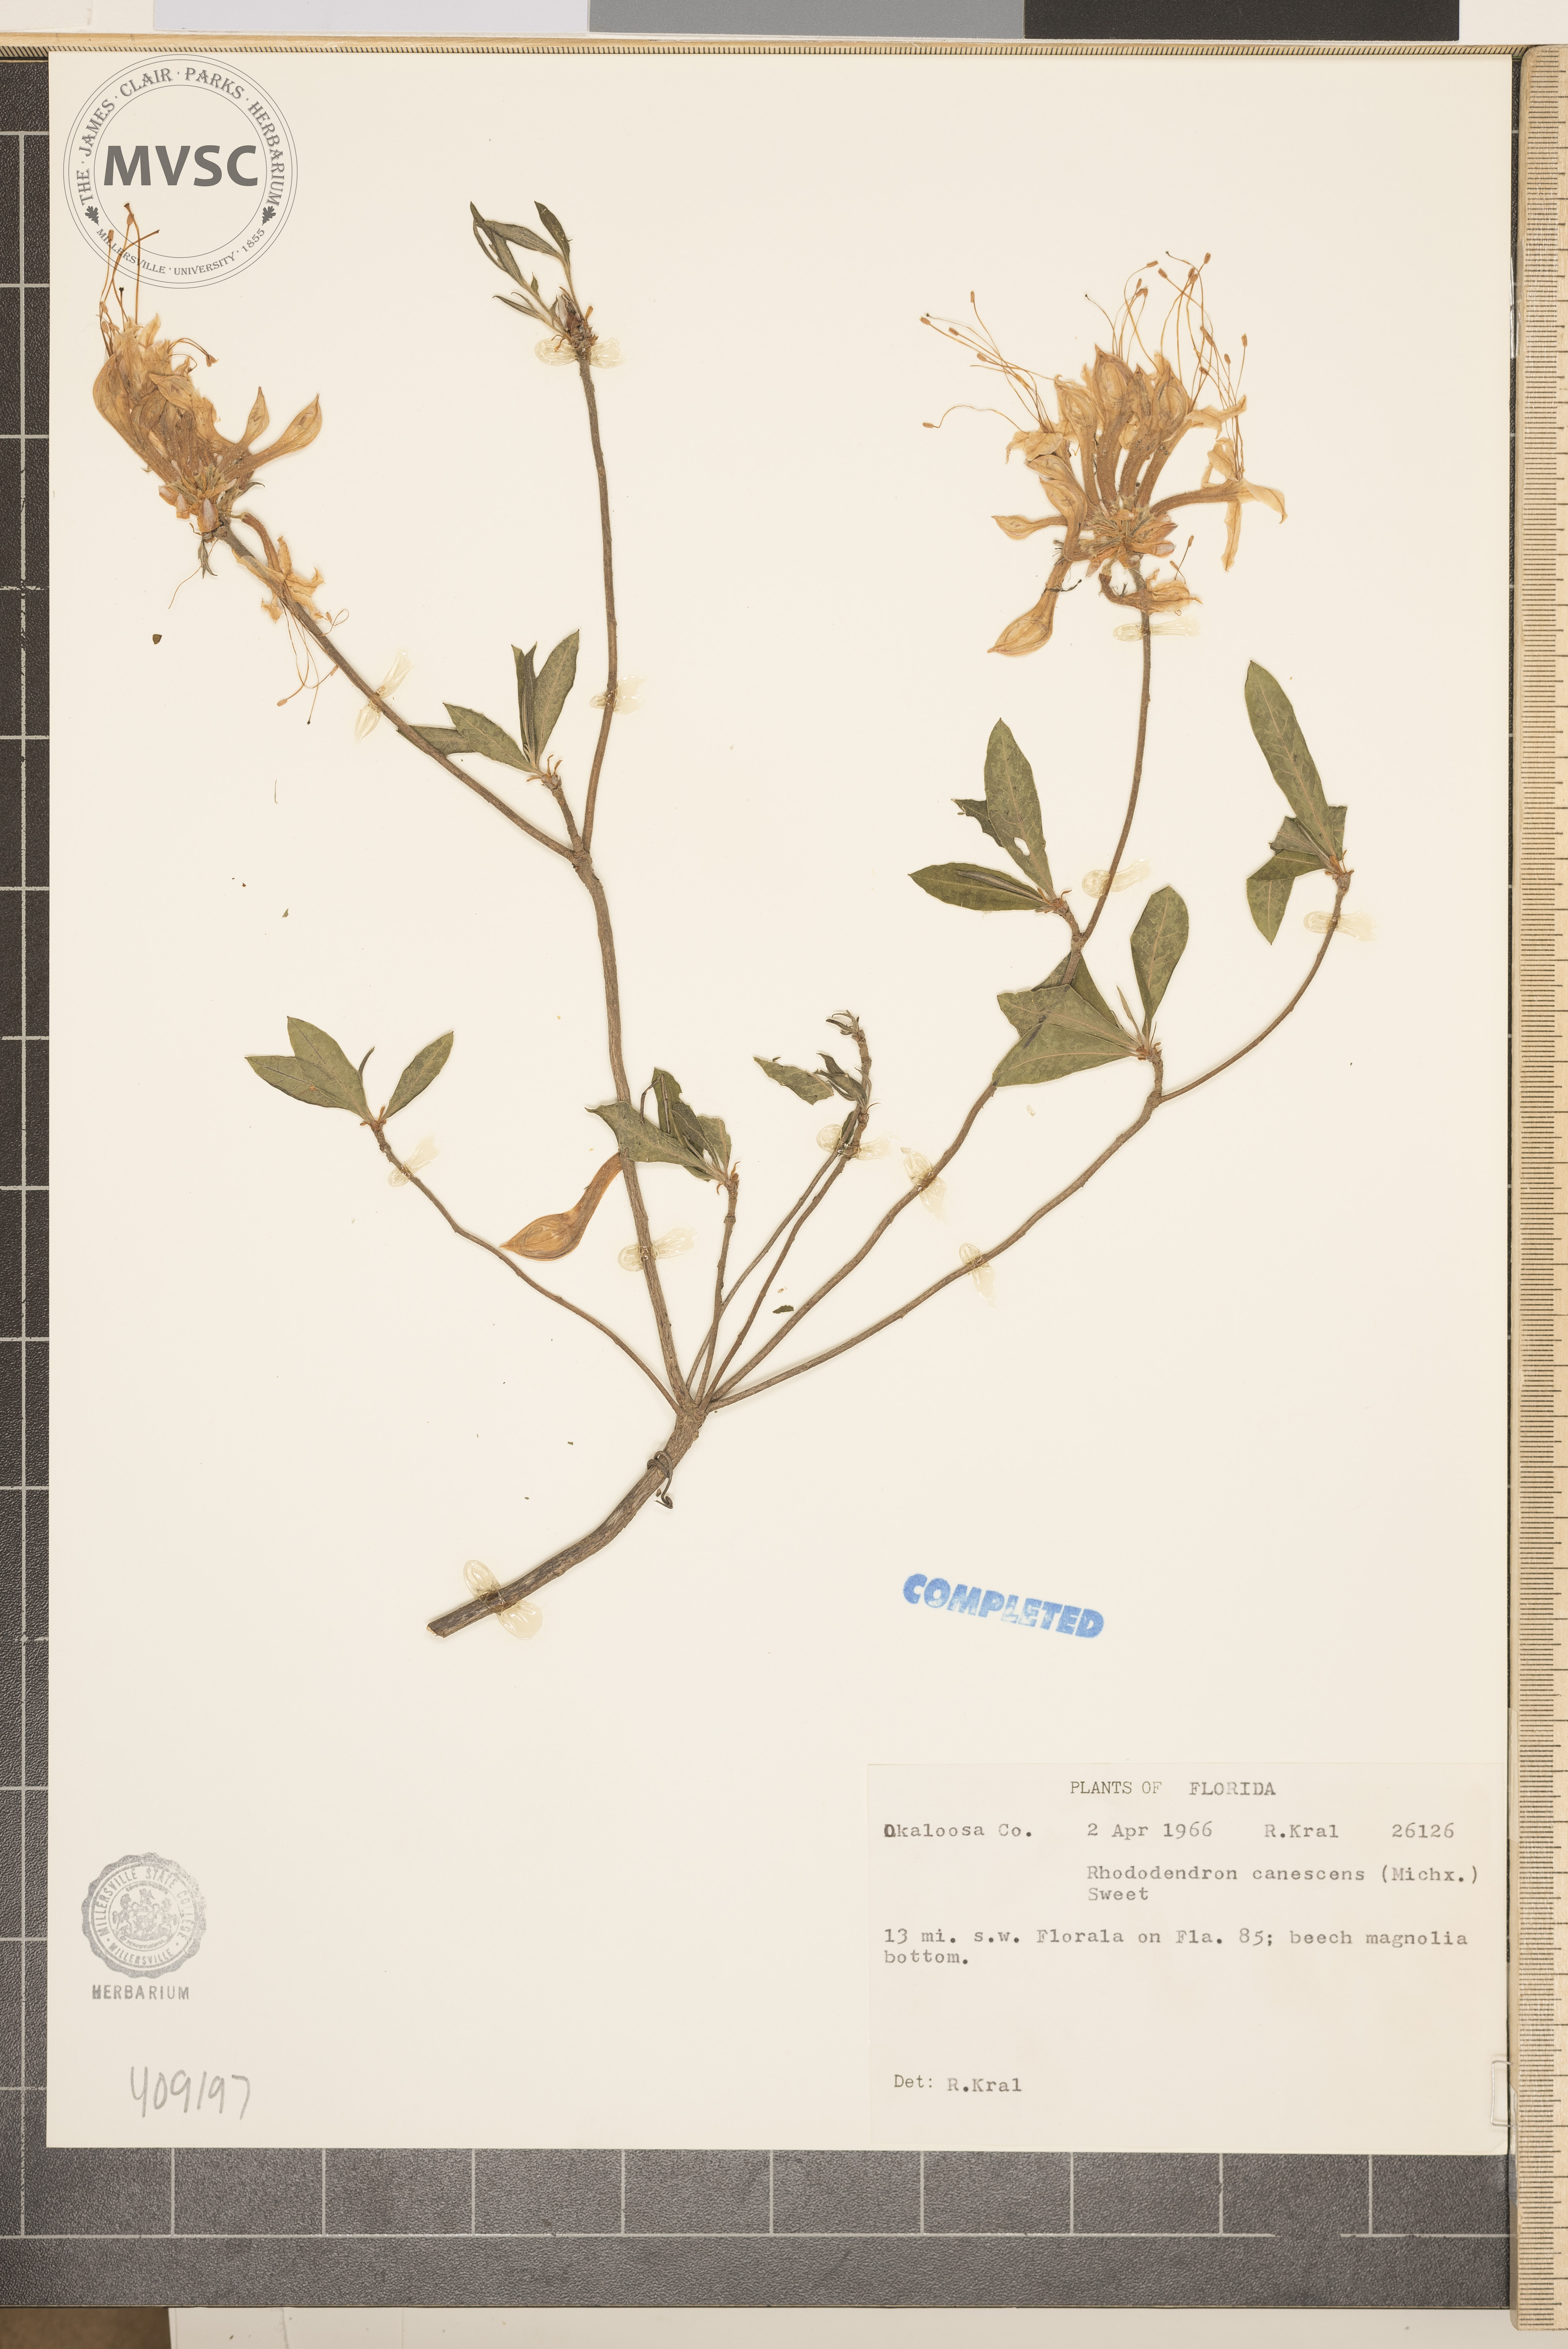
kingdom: Plantae
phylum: Tracheophyta
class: Magnoliopsida
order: Ericales
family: Ericaceae
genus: Rhododendron
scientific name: Rhododendron canescens
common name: Mountain azalea
